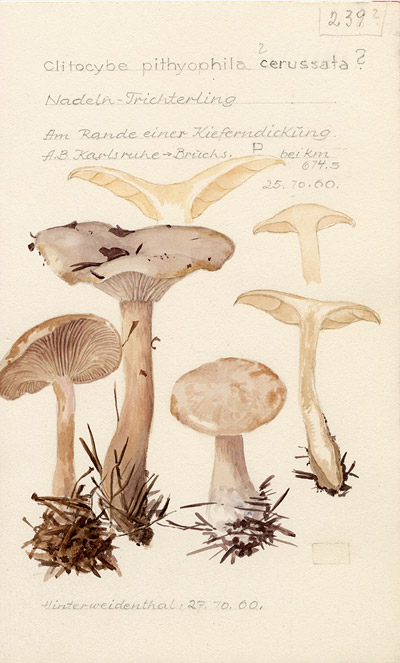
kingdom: Fungi
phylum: Basidiomycota
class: Agaricomycetes
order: Agaricales
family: Tricholomataceae
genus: Clitocybe
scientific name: Clitocybe phyllophila
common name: Frosty funnel
